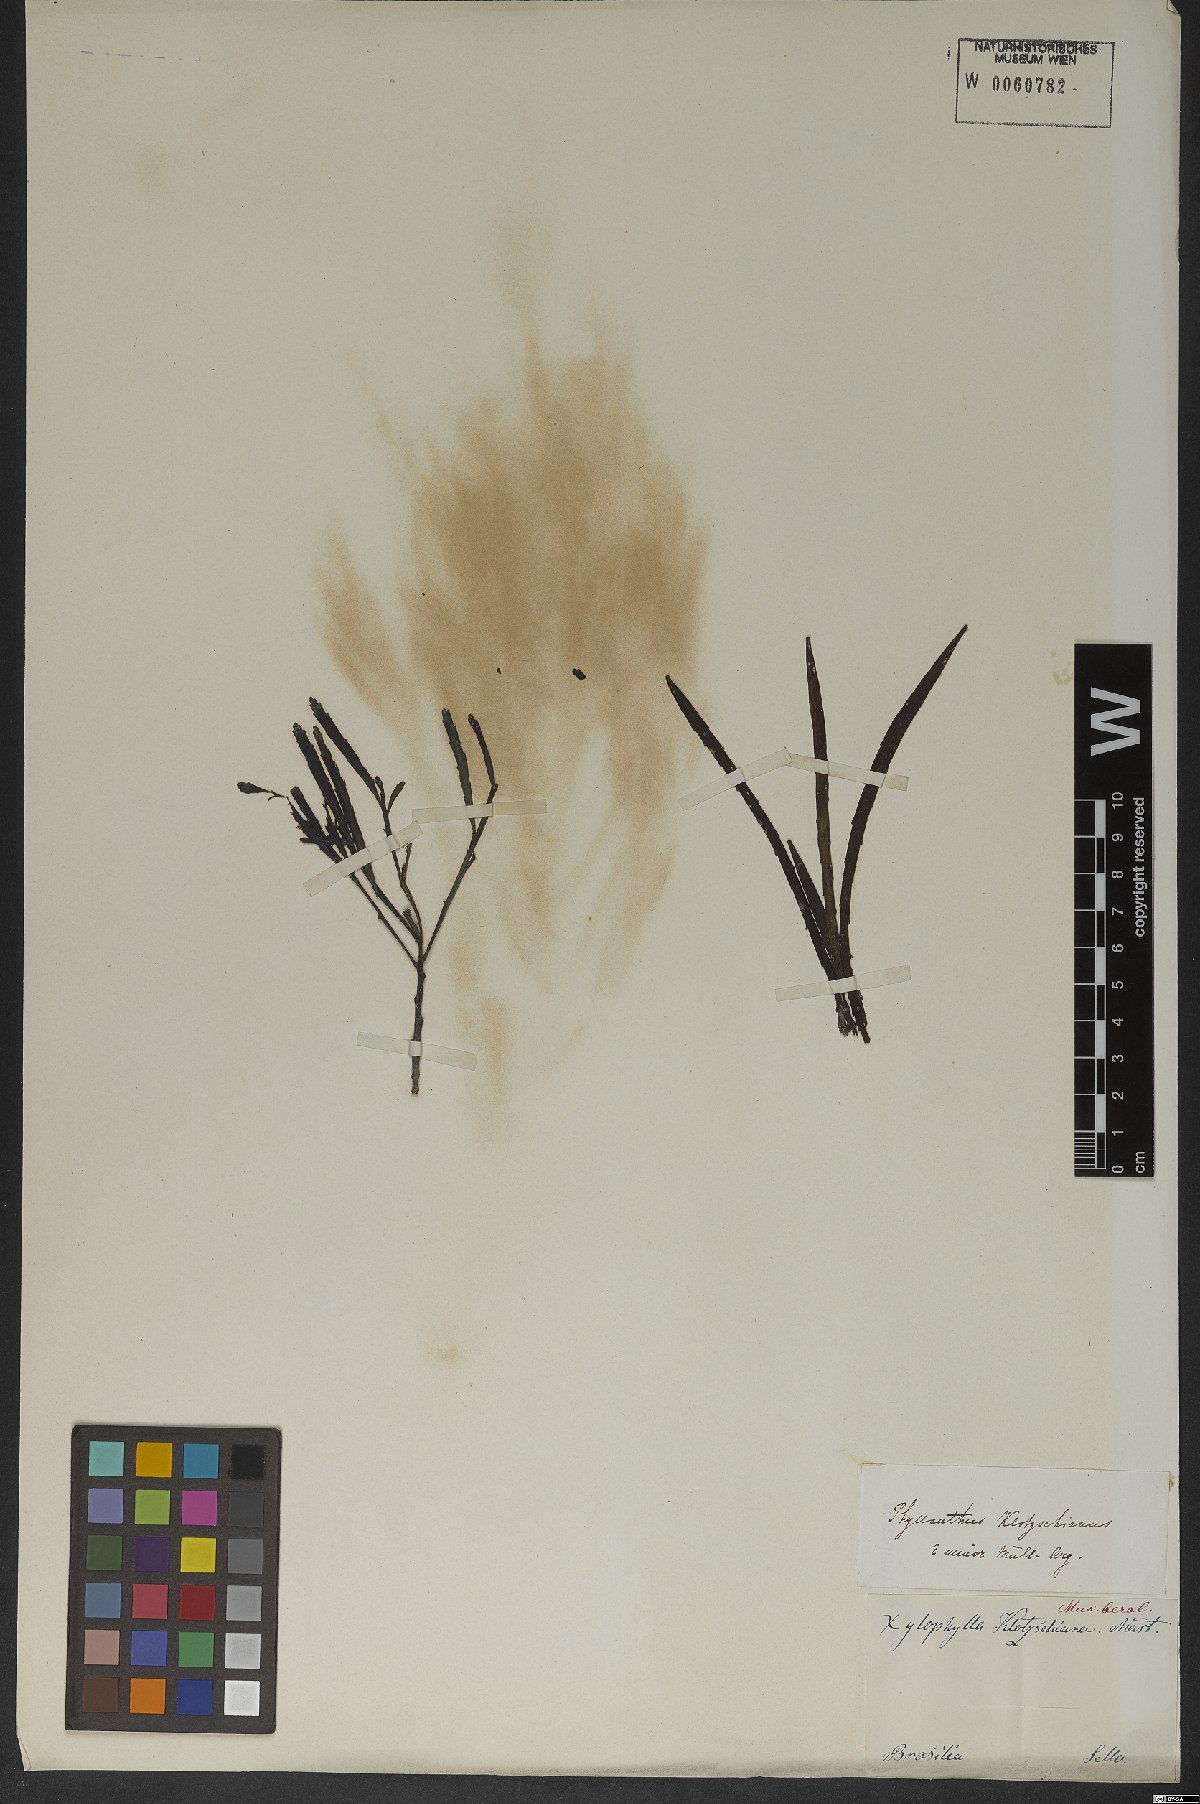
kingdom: Plantae
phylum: Tracheophyta
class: Magnoliopsida
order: Malpighiales
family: Phyllanthaceae
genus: Phyllanthus
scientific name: Phyllanthus robustus
